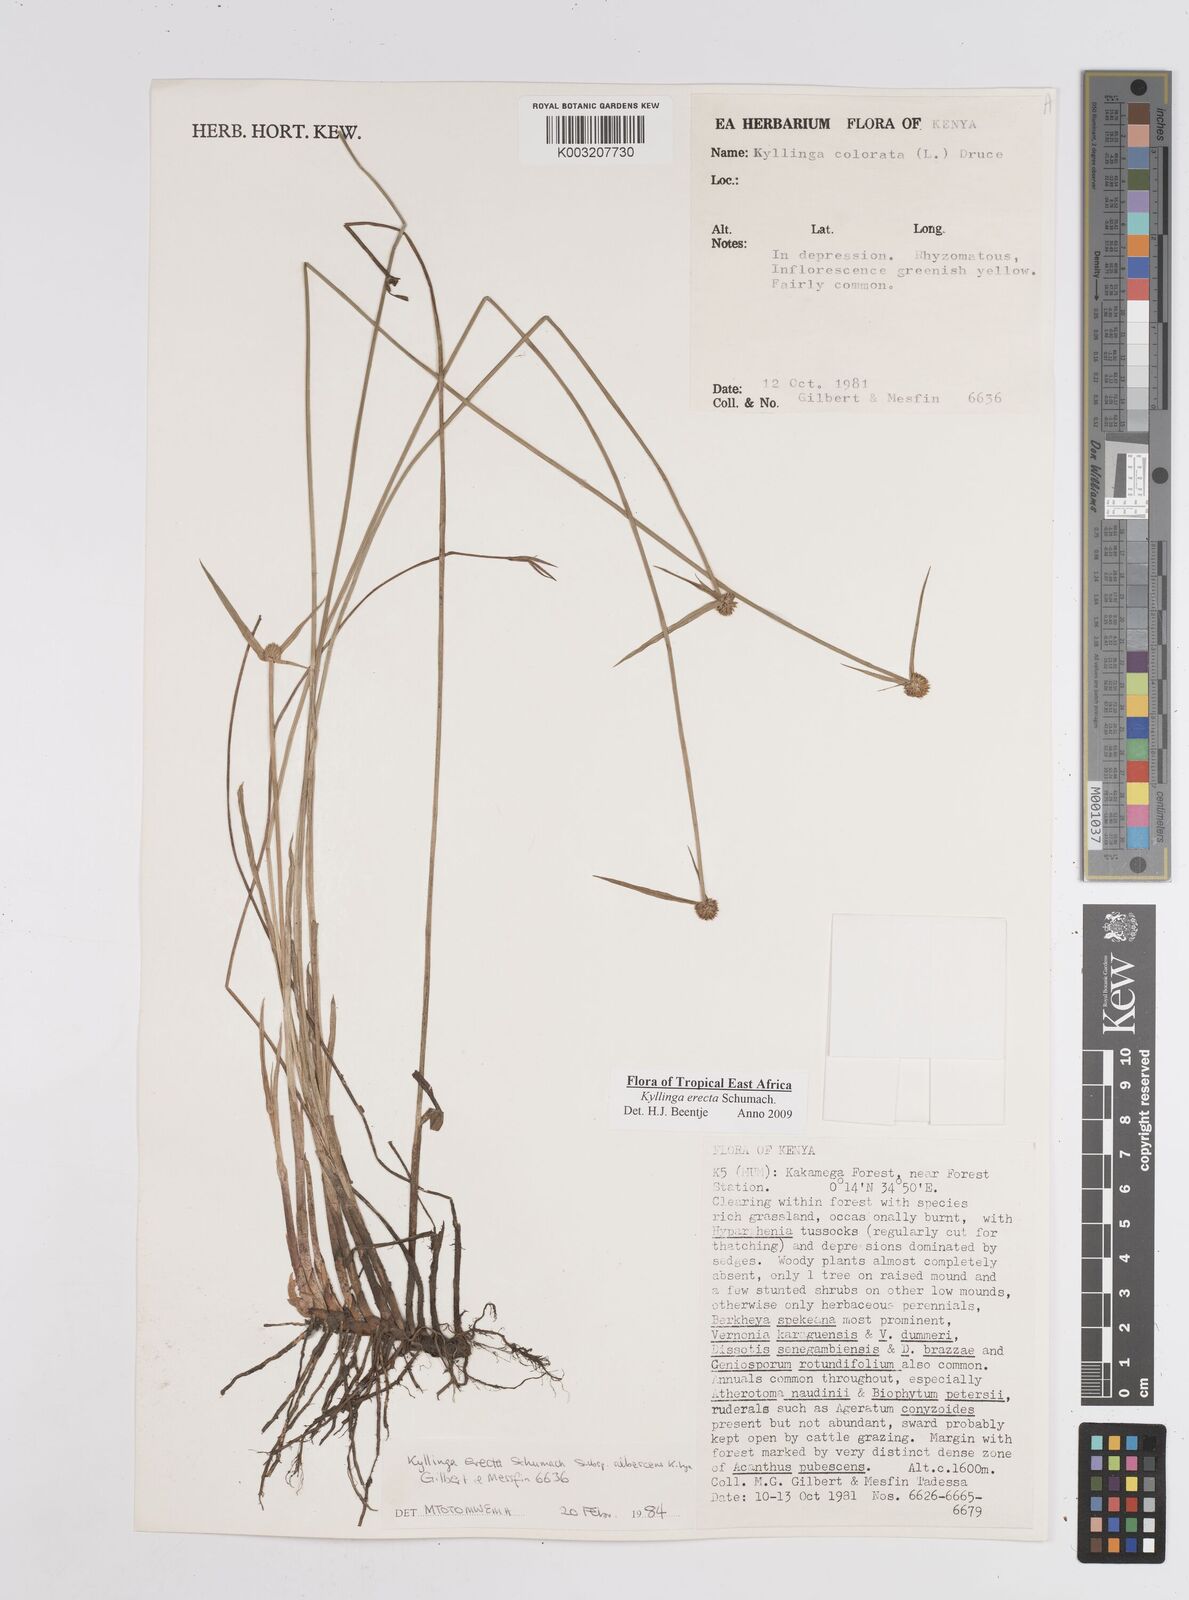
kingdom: Plantae
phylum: Tracheophyta
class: Liliopsida
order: Poales
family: Cyperaceae
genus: Cyperus
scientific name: Cyperus erectus
